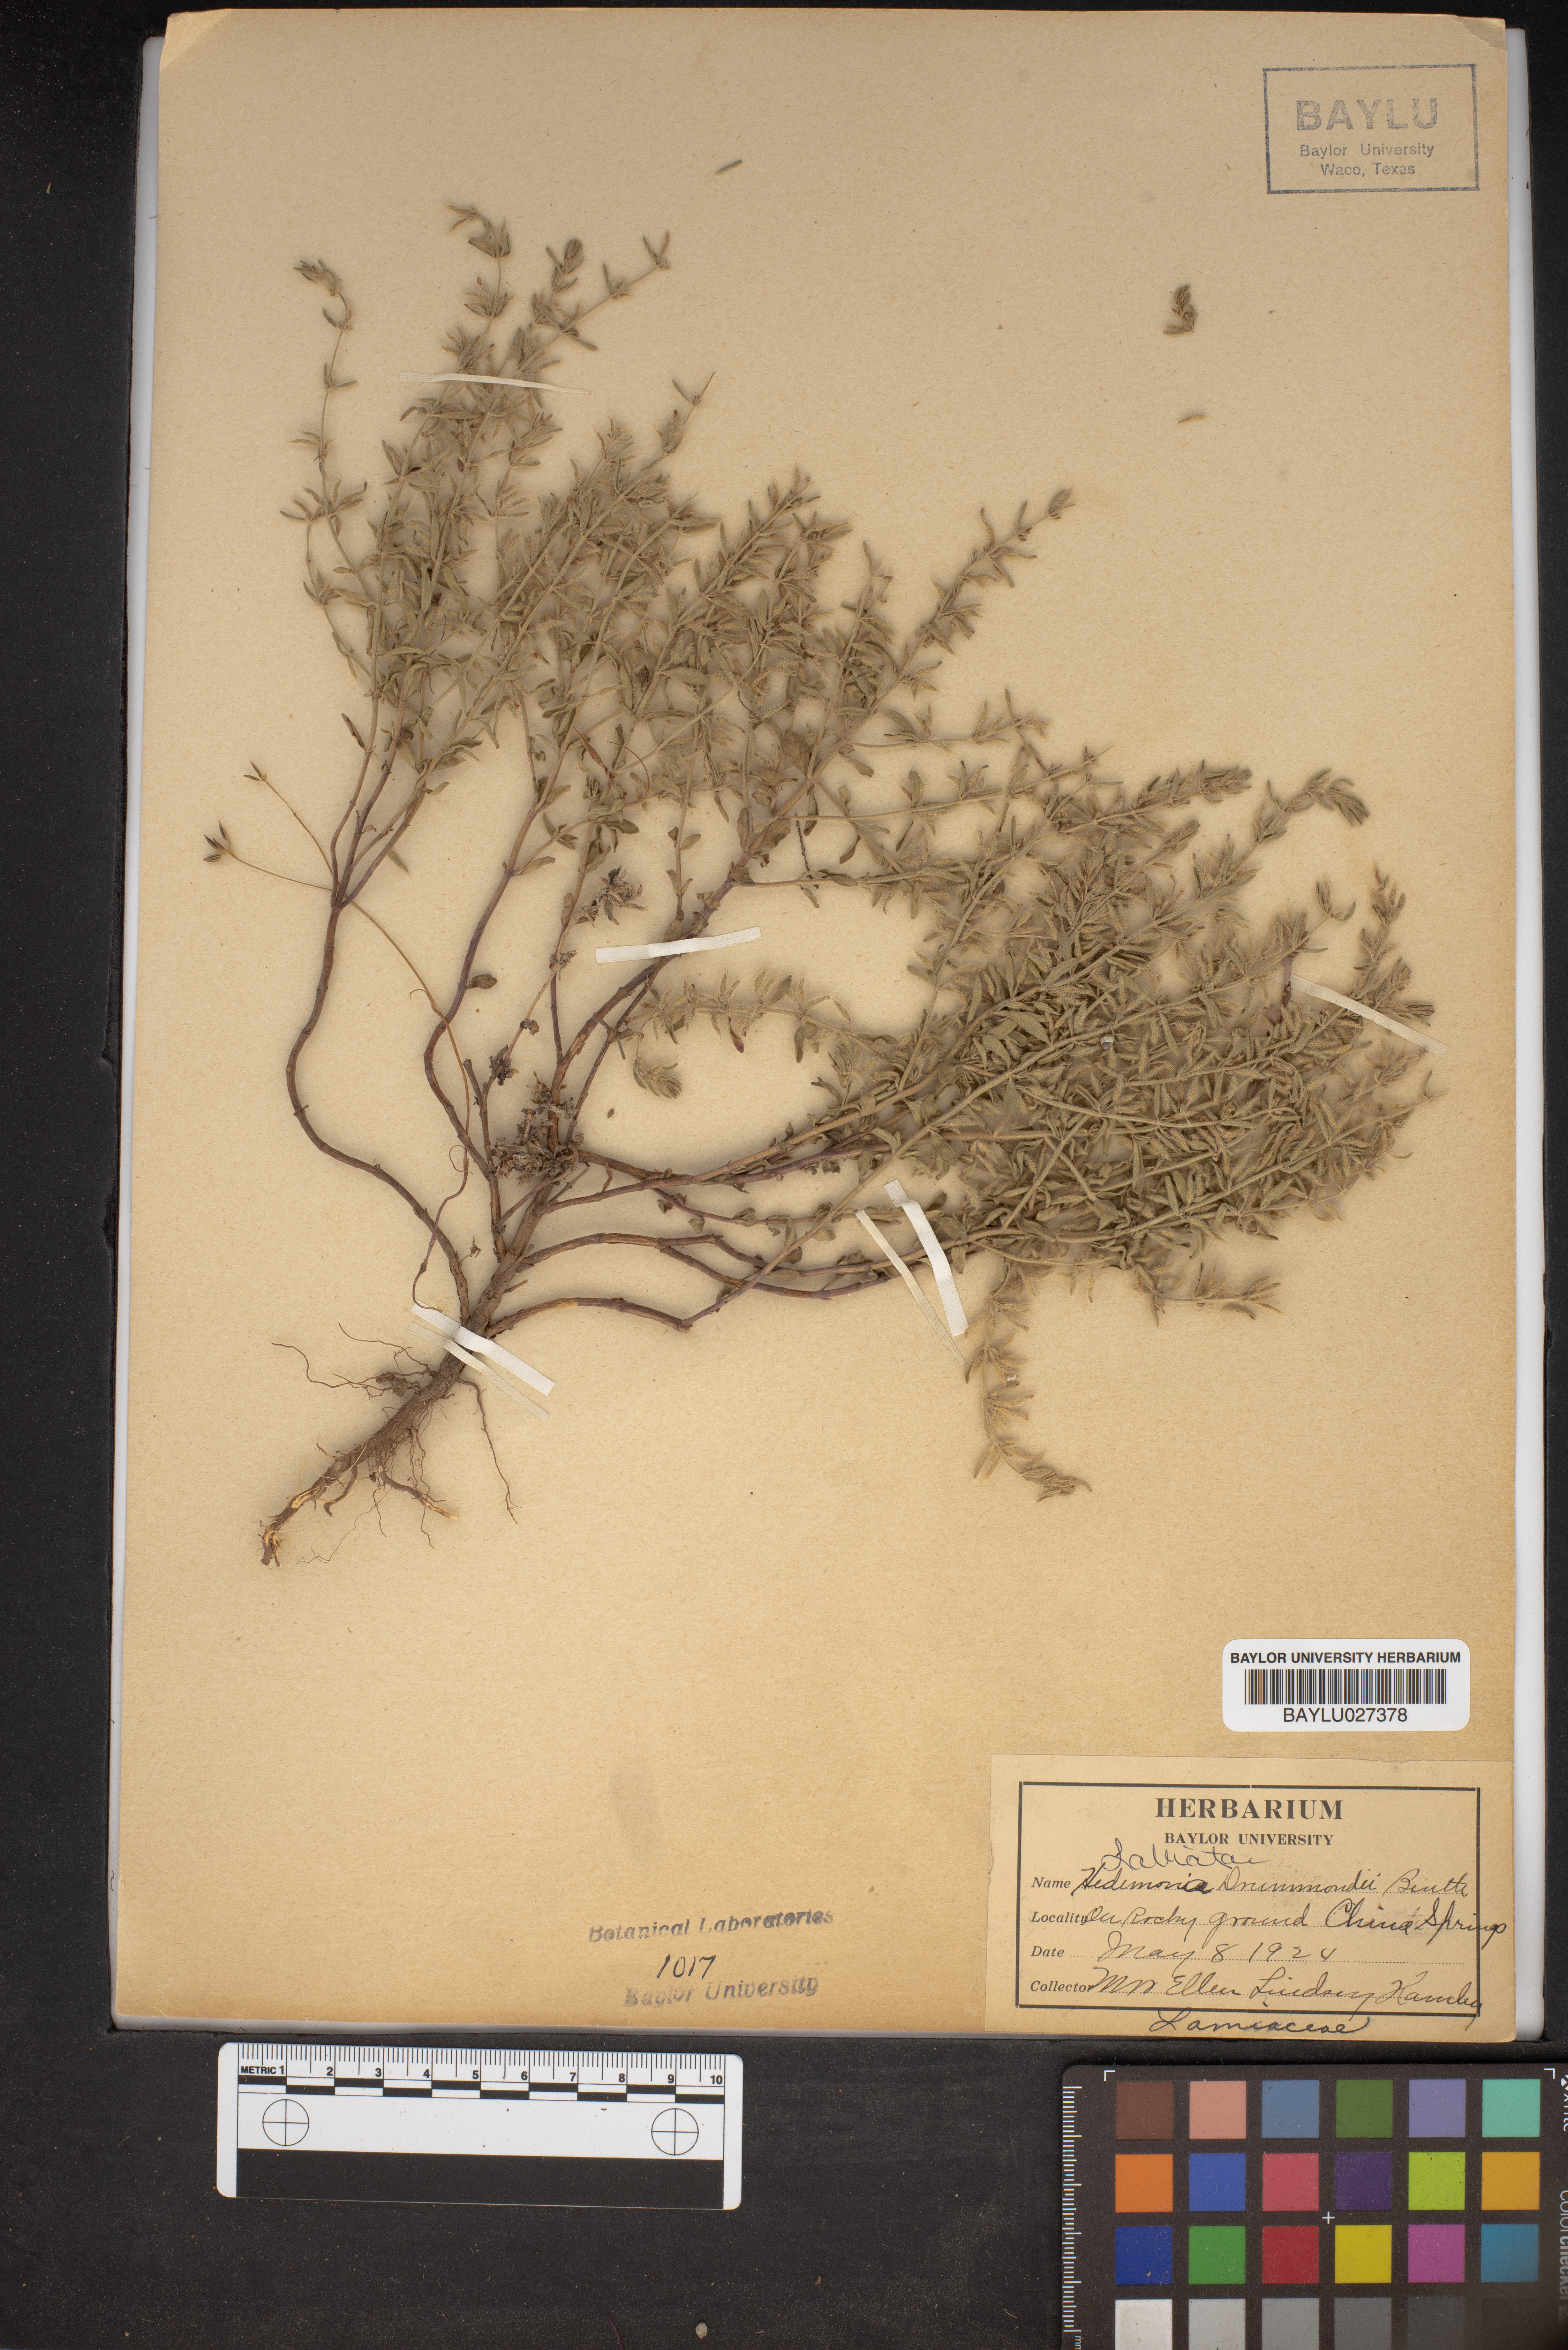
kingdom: Plantae
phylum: Tracheophyta
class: Magnoliopsida
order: Lamiales
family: Lamiaceae
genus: Hedeoma
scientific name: Hedeoma drummondii
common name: New mexico pennyroyal
